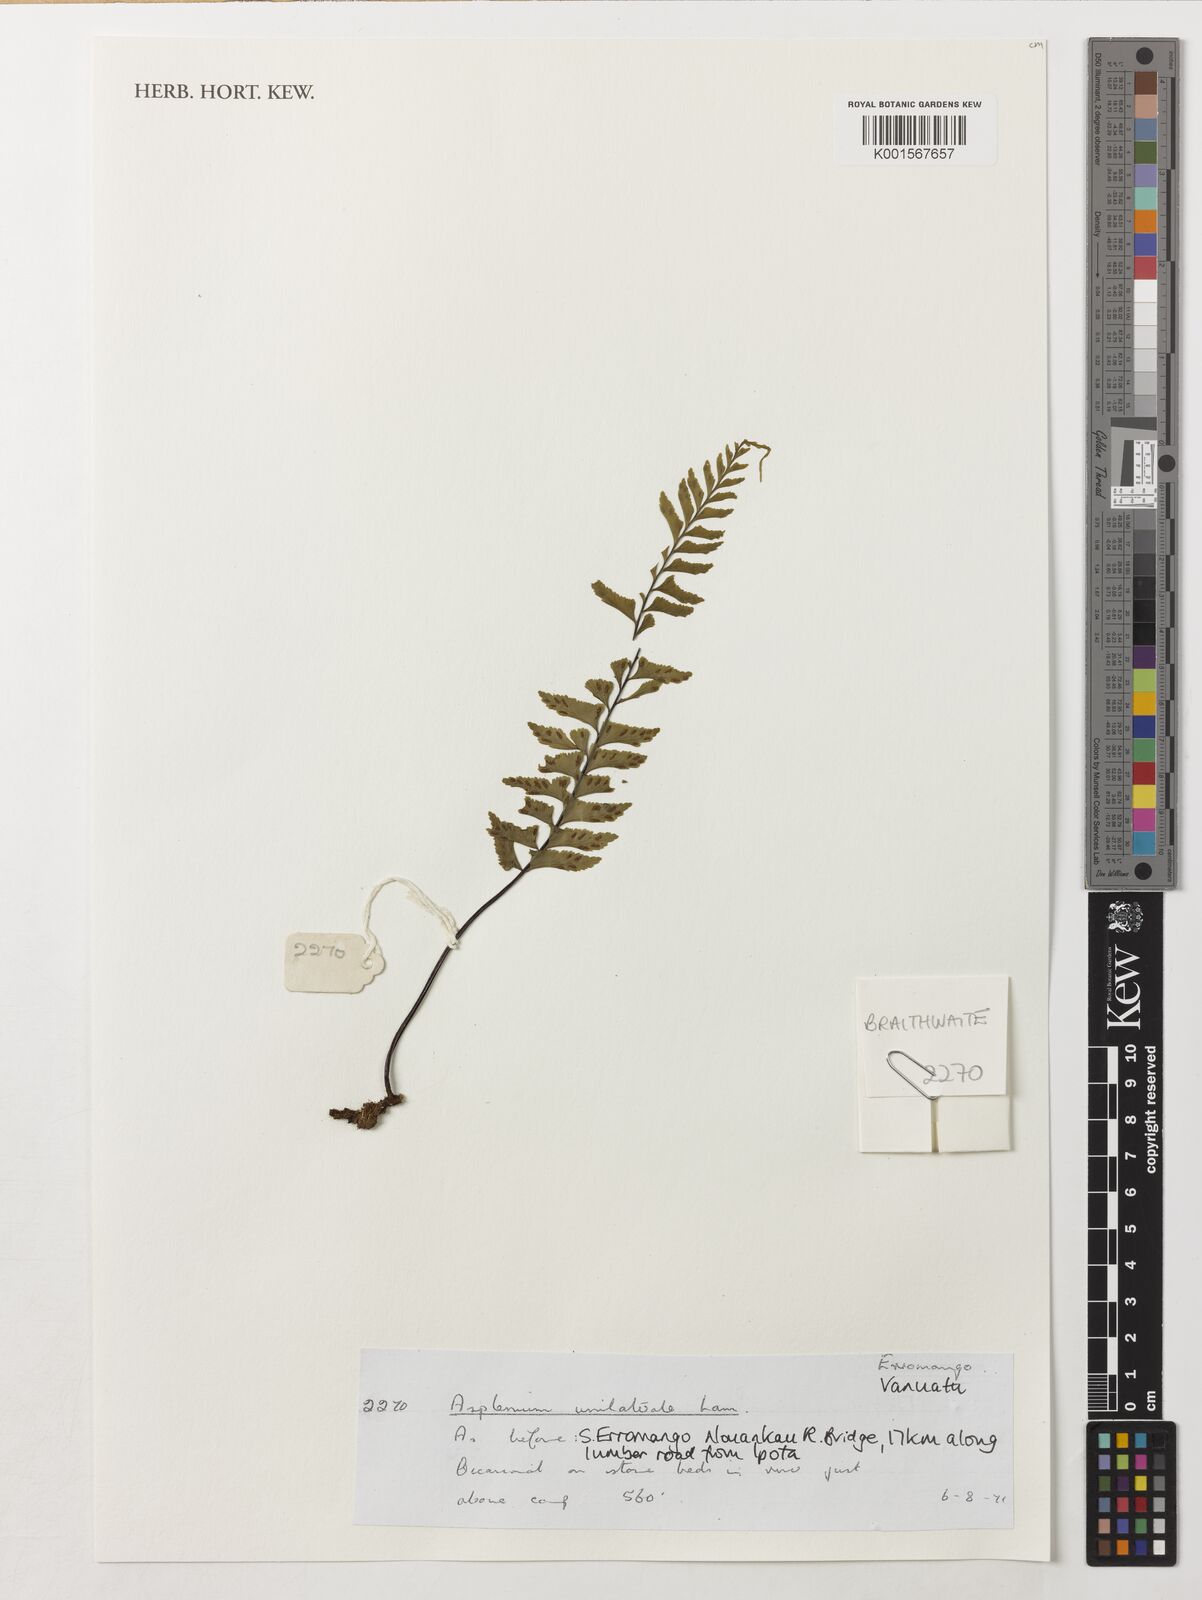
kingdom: Plantae
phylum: Tracheophyta
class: Polypodiopsida
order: Polypodiales
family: Aspleniaceae
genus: Hymenasplenium
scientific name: Hymenasplenium unilaterale
